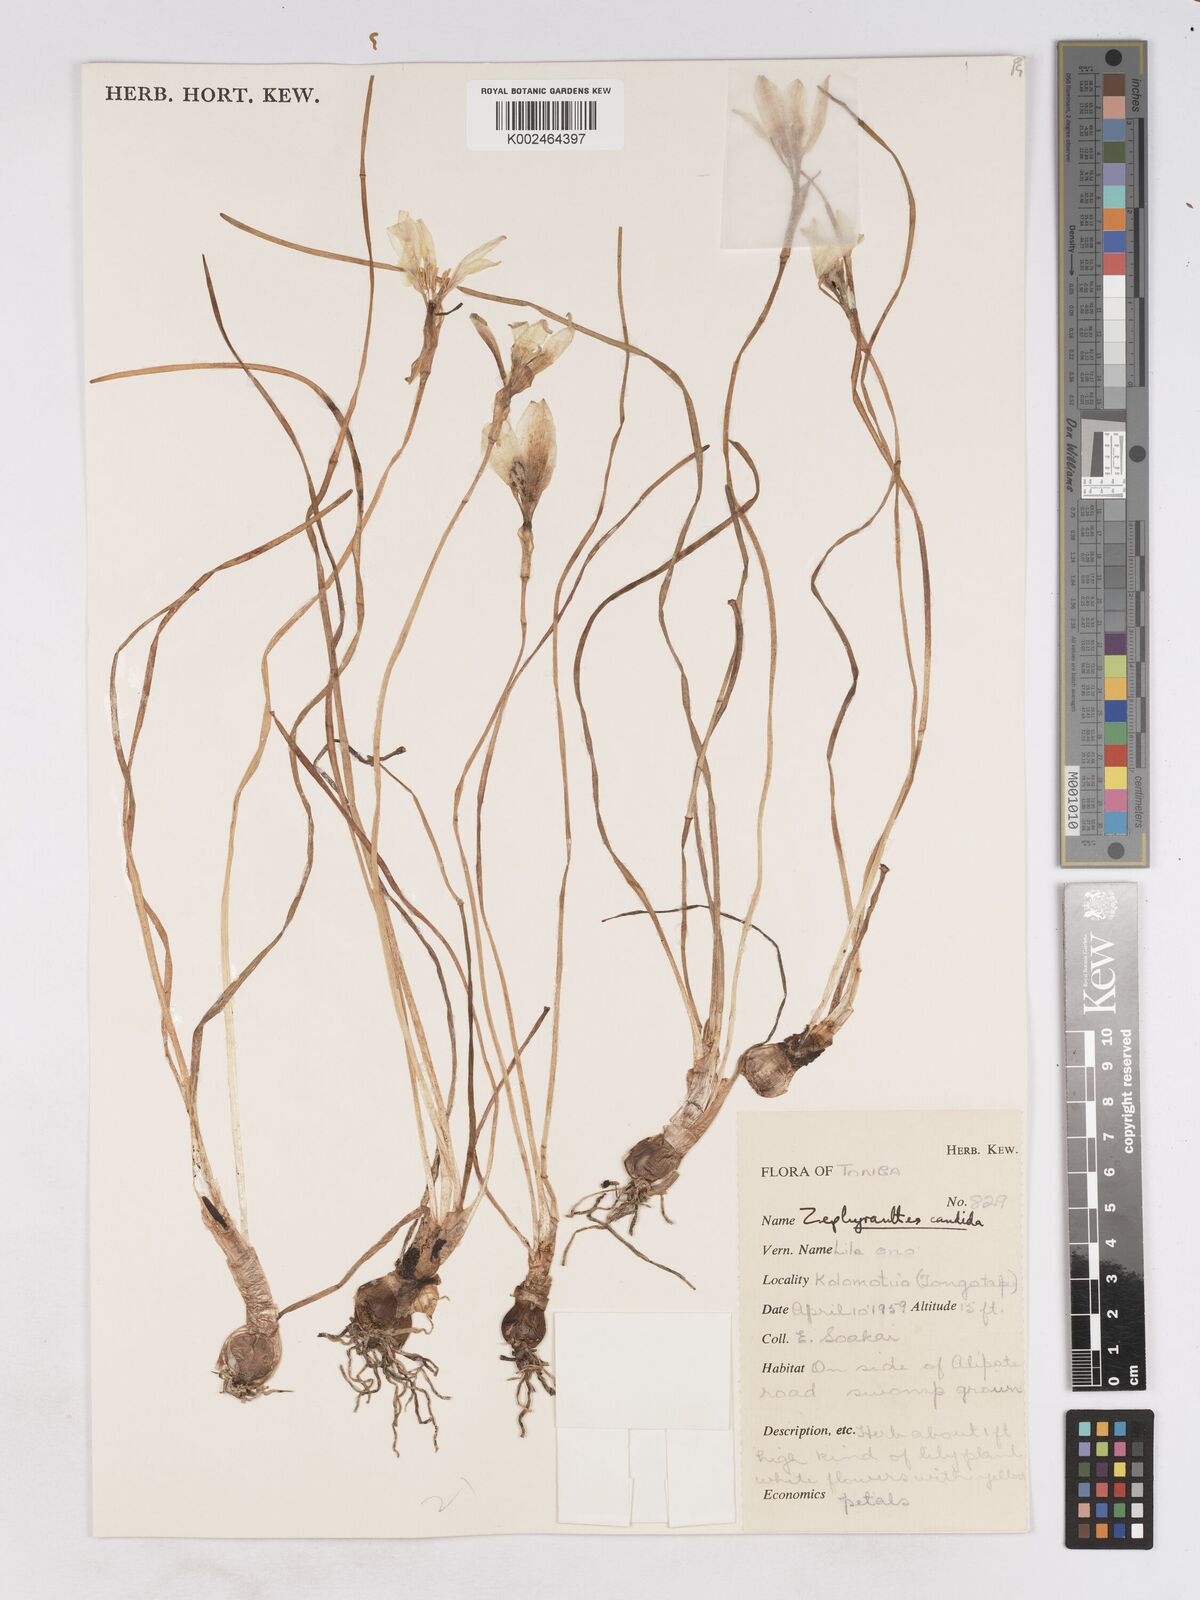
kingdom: Plantae
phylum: Tracheophyta
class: Liliopsida
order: Asparagales
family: Amaryllidaceae
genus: Zephyranthes
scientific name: Zephyranthes candida
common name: Autumn zephyrlily
